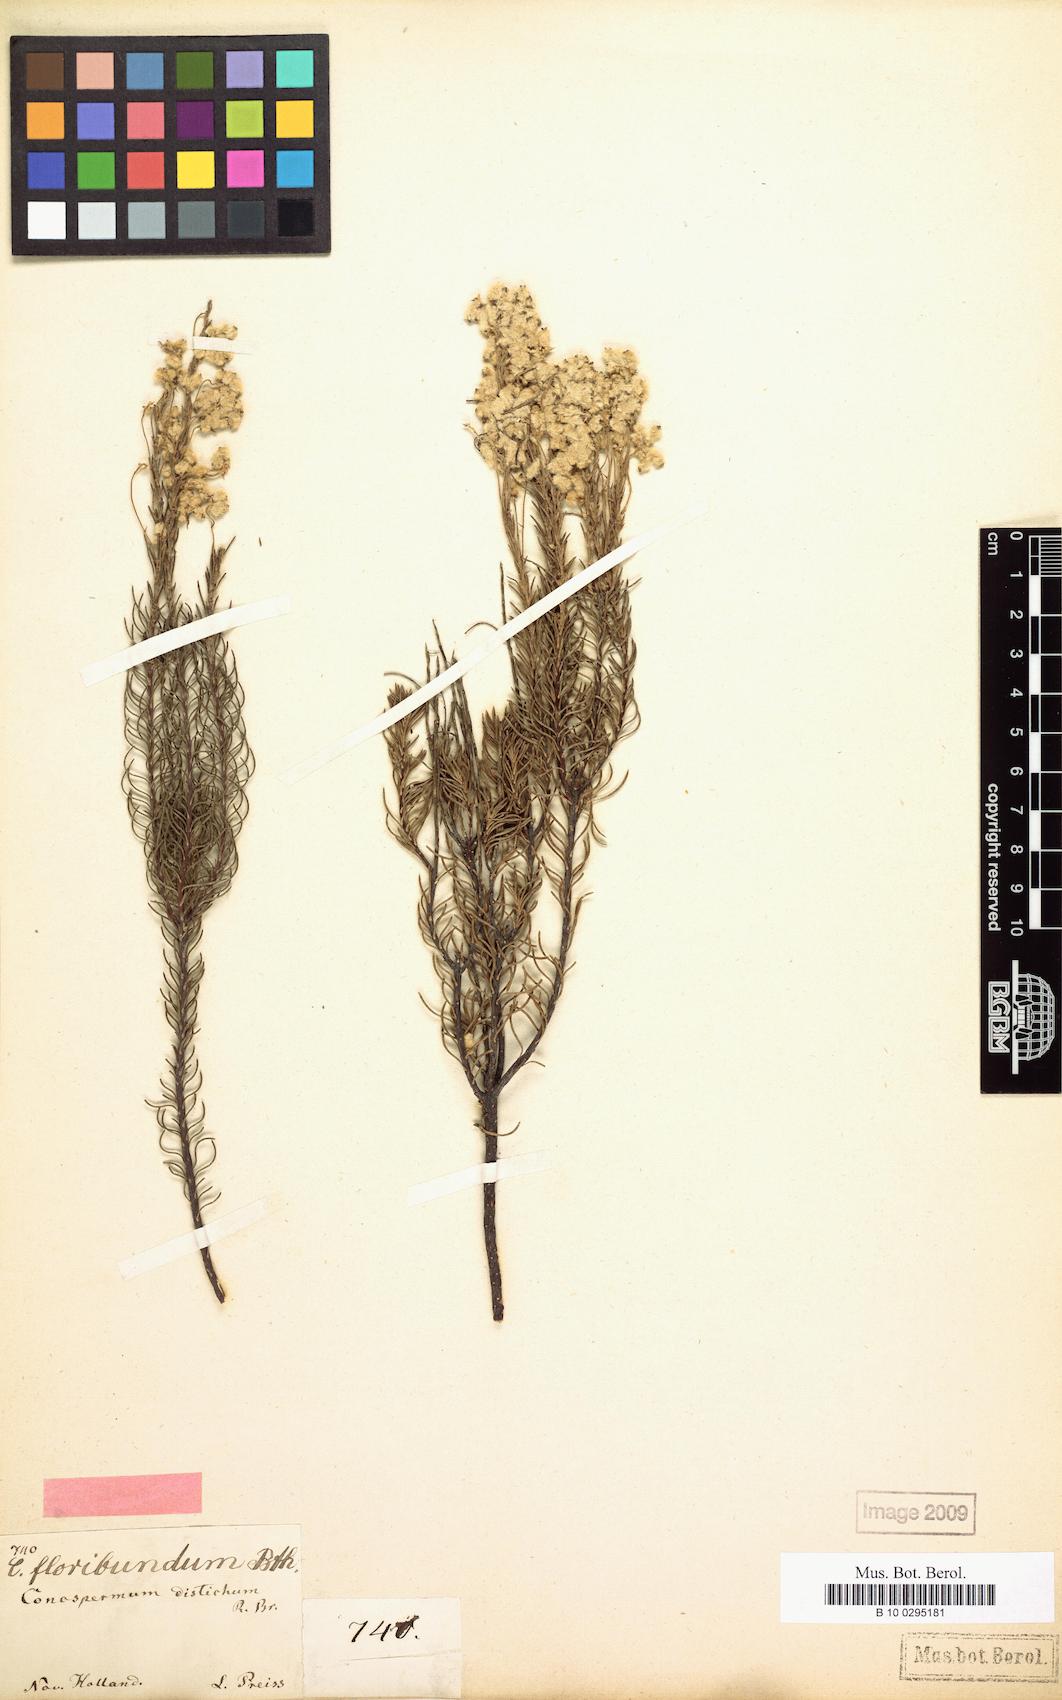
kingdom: Plantae
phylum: Tracheophyta
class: Magnoliopsida
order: Proteales
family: Proteaceae
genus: Conospermum
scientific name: Conospermum floribundum
